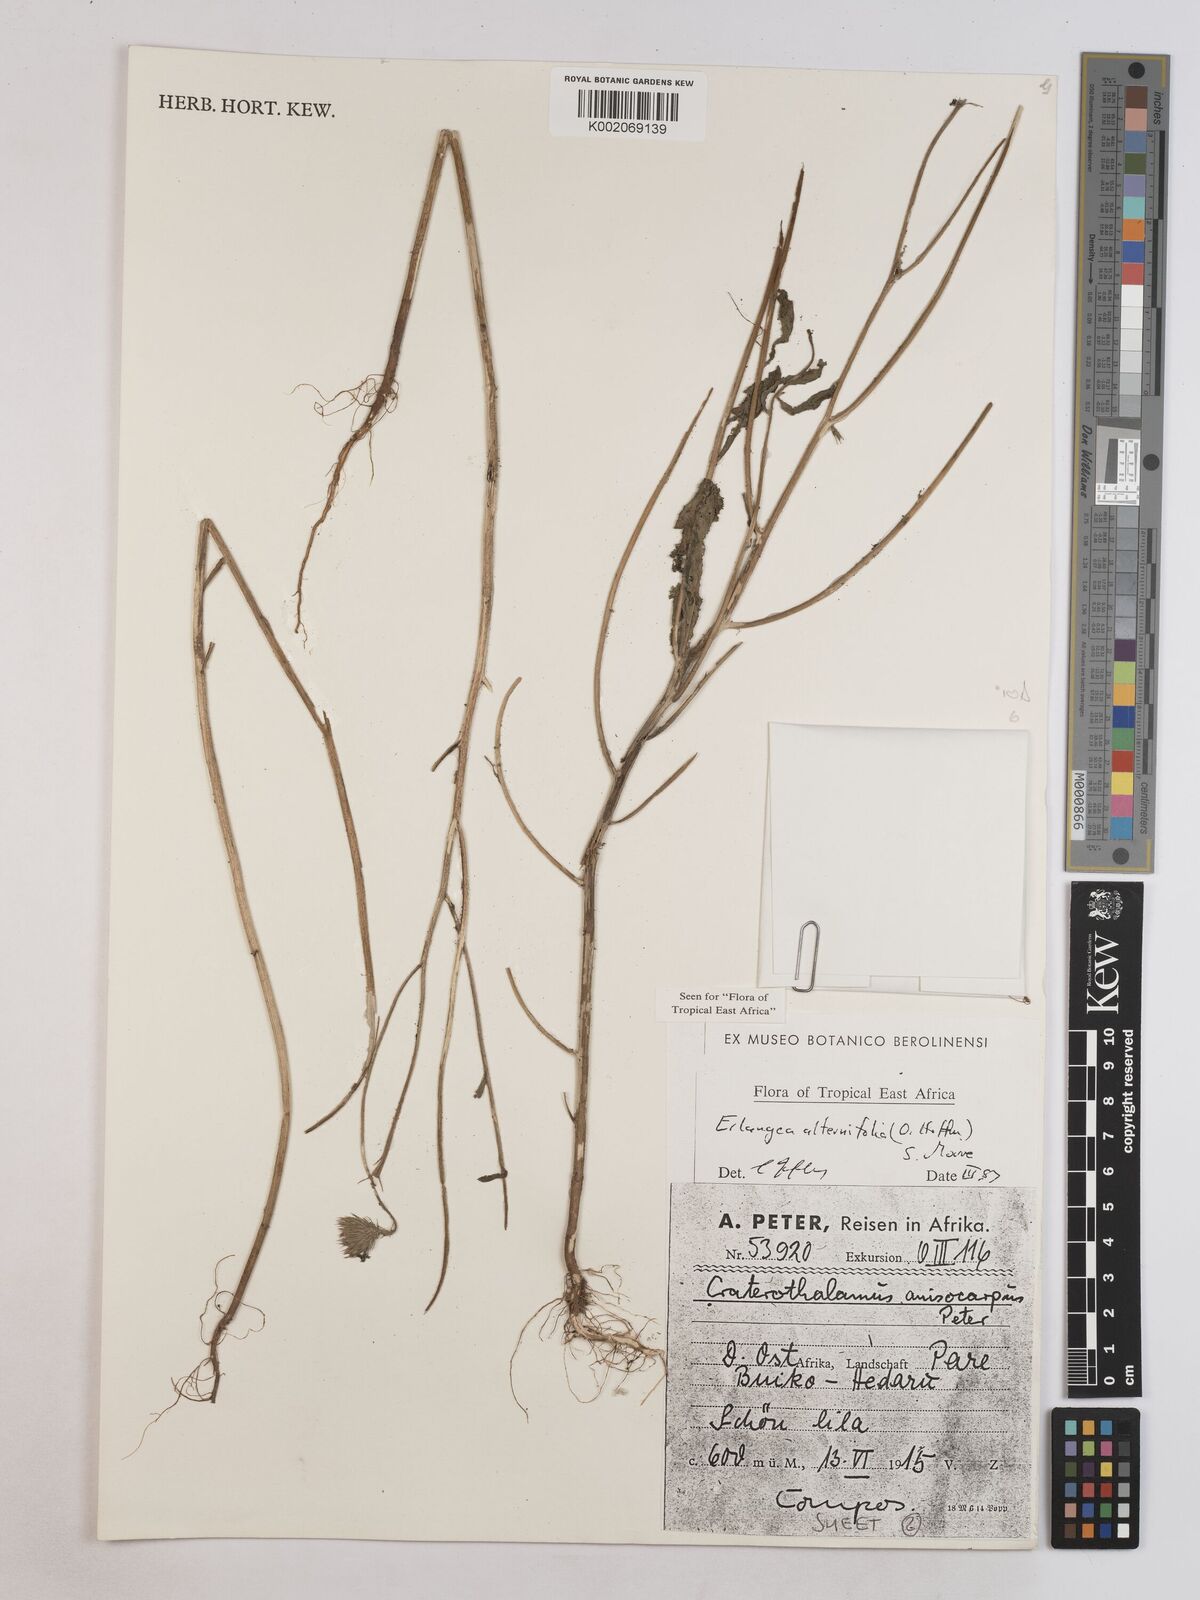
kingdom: Plantae
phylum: Tracheophyta
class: Magnoliopsida
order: Asterales
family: Asteraceae
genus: Erlangea
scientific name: Erlangea alternifolia
